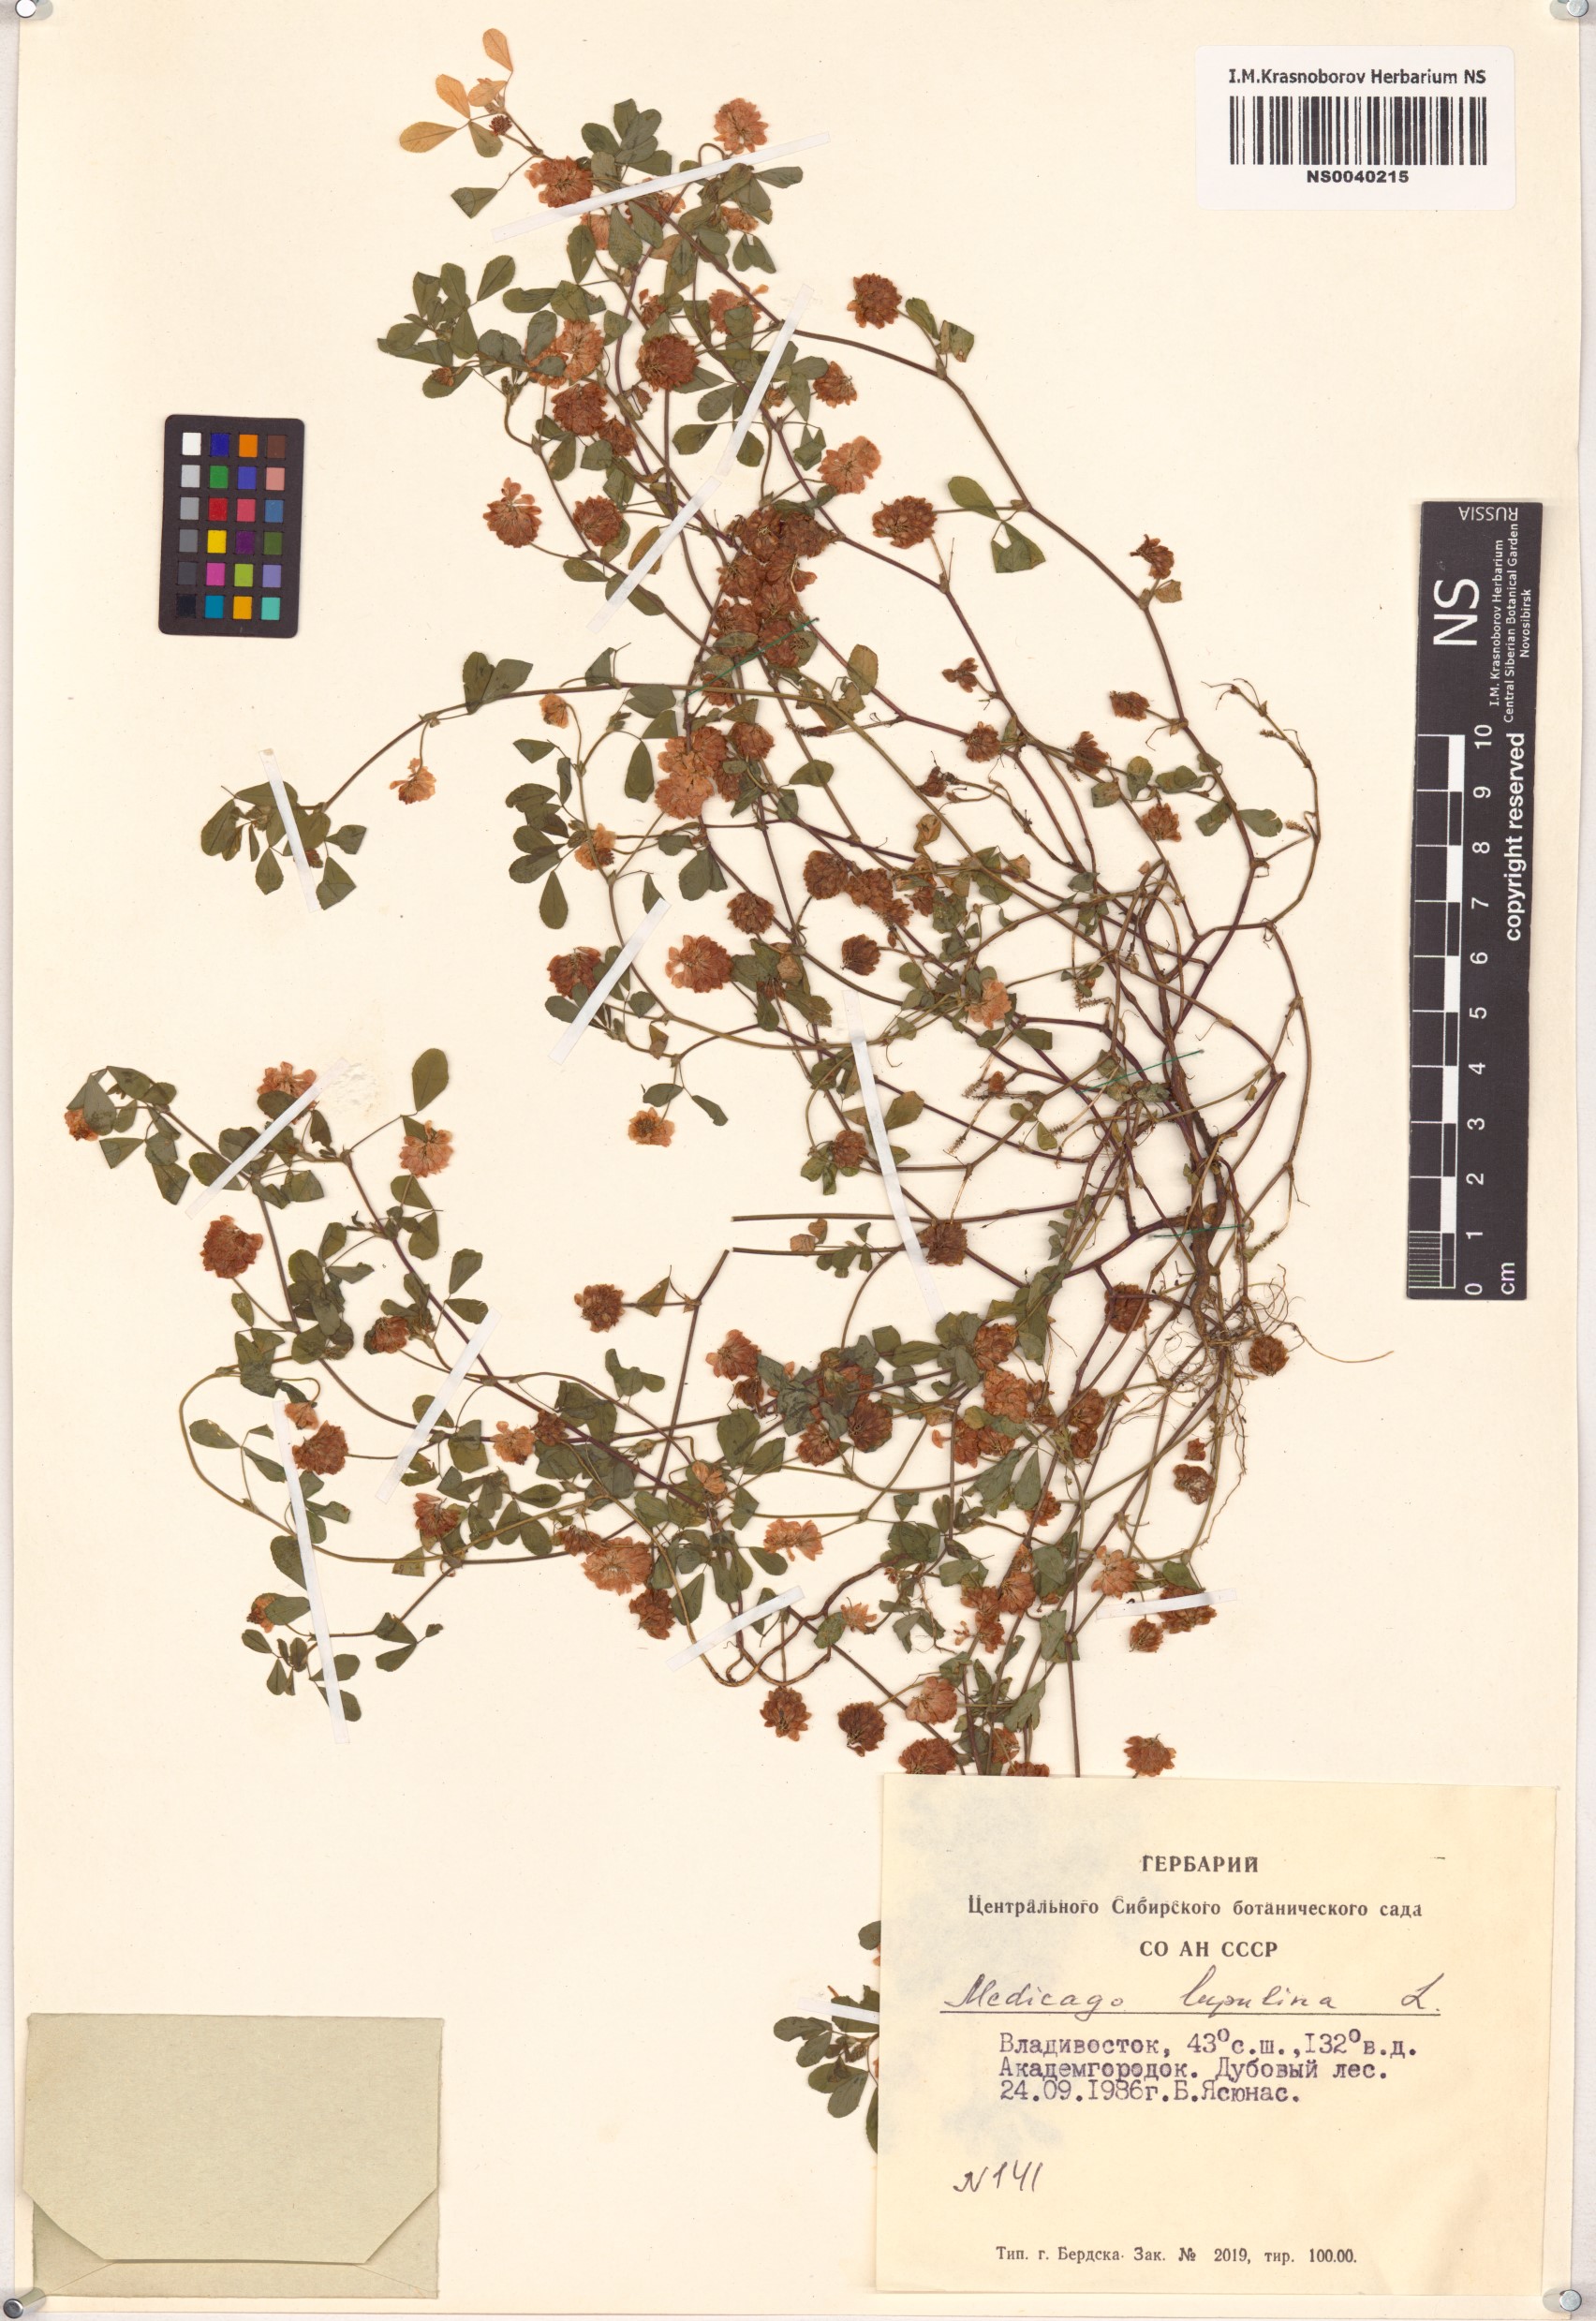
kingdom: Plantae
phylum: Tracheophyta
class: Magnoliopsida
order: Fabales
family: Fabaceae
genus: Medicago
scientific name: Medicago lupulina
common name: Black medick
